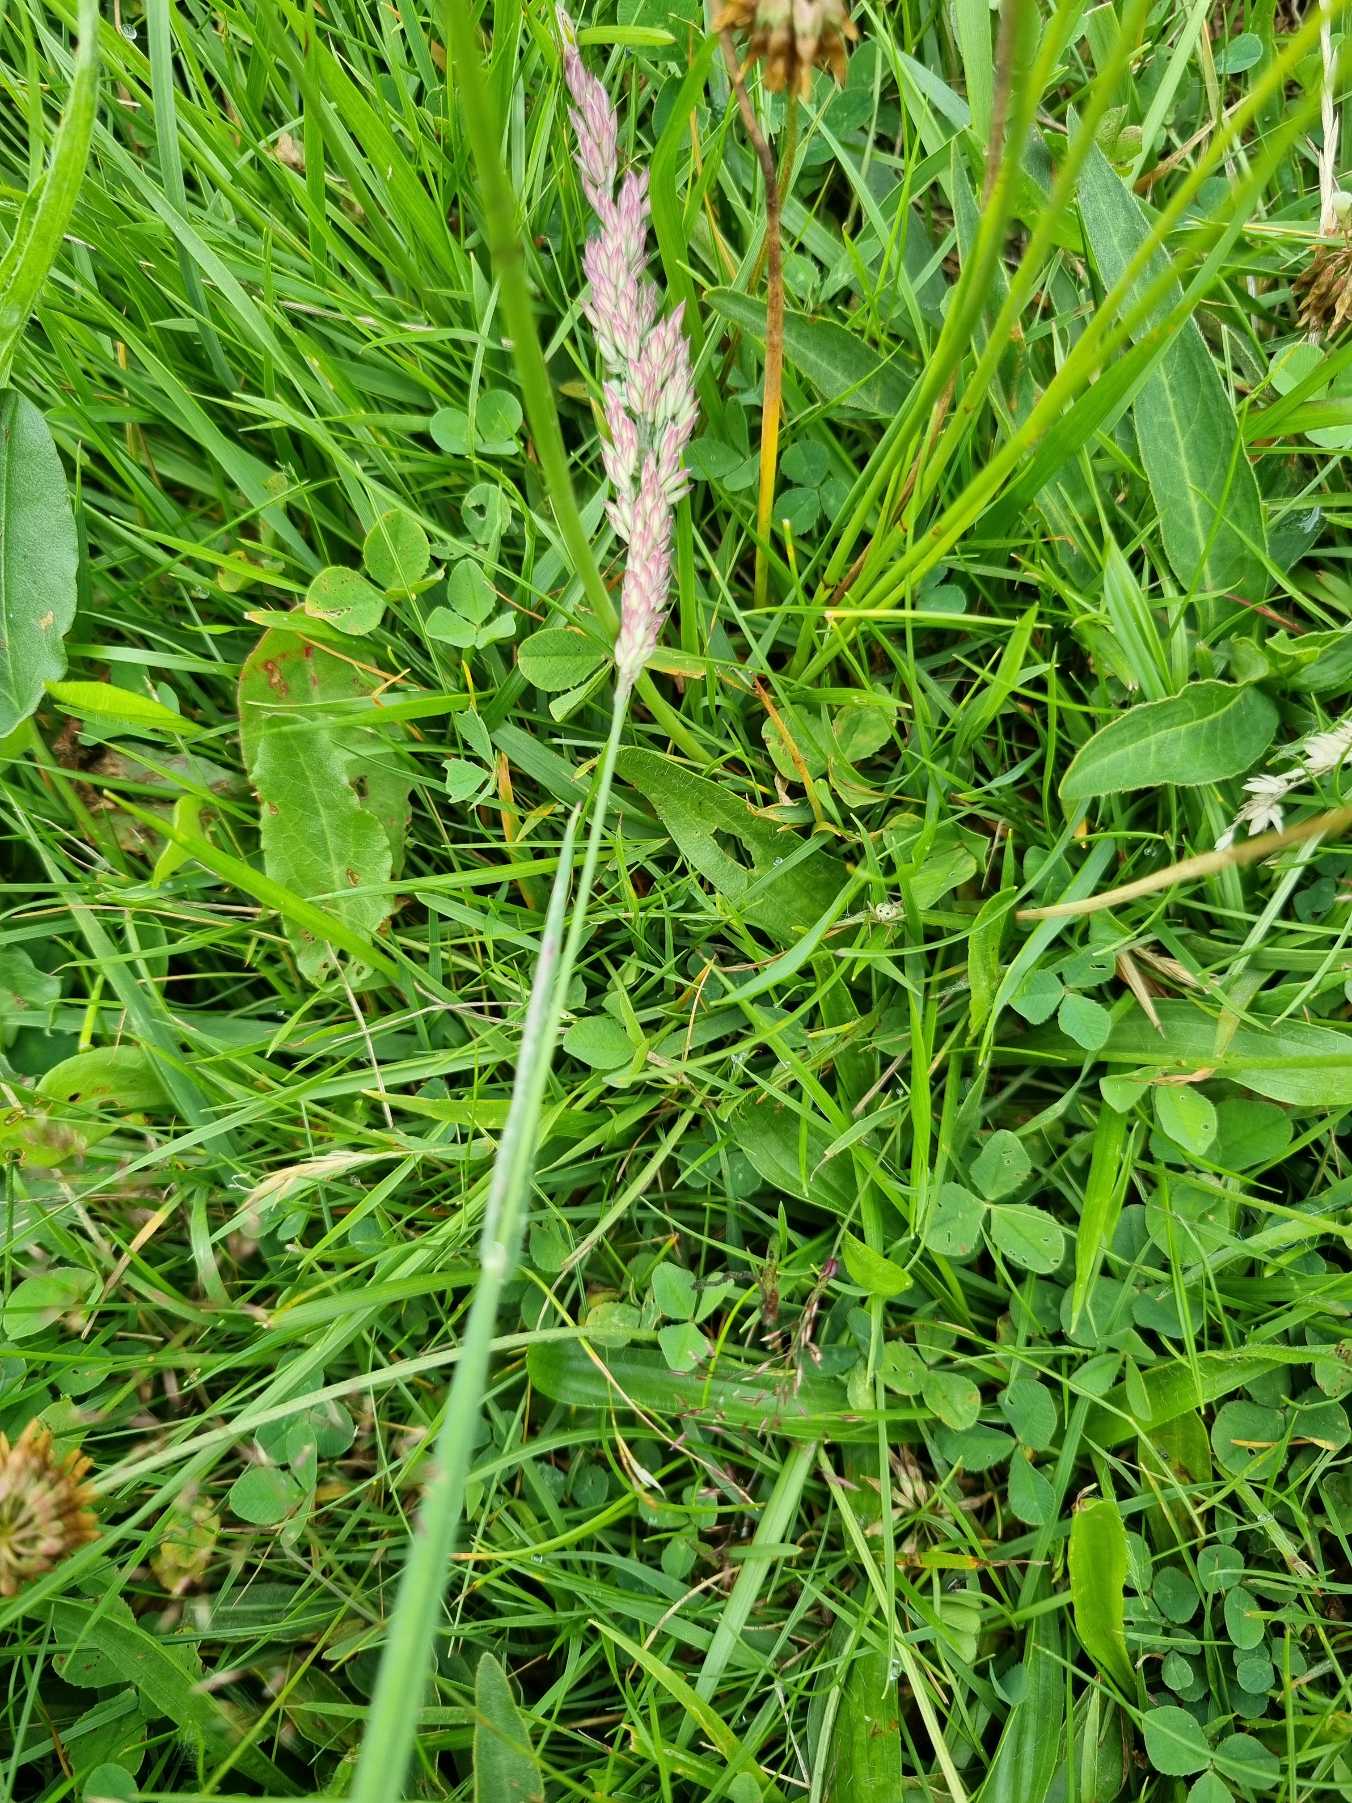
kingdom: Plantae
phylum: Tracheophyta
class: Liliopsida
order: Poales
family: Poaceae
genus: Holcus
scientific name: Holcus lanatus
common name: Fløjlsgræs
